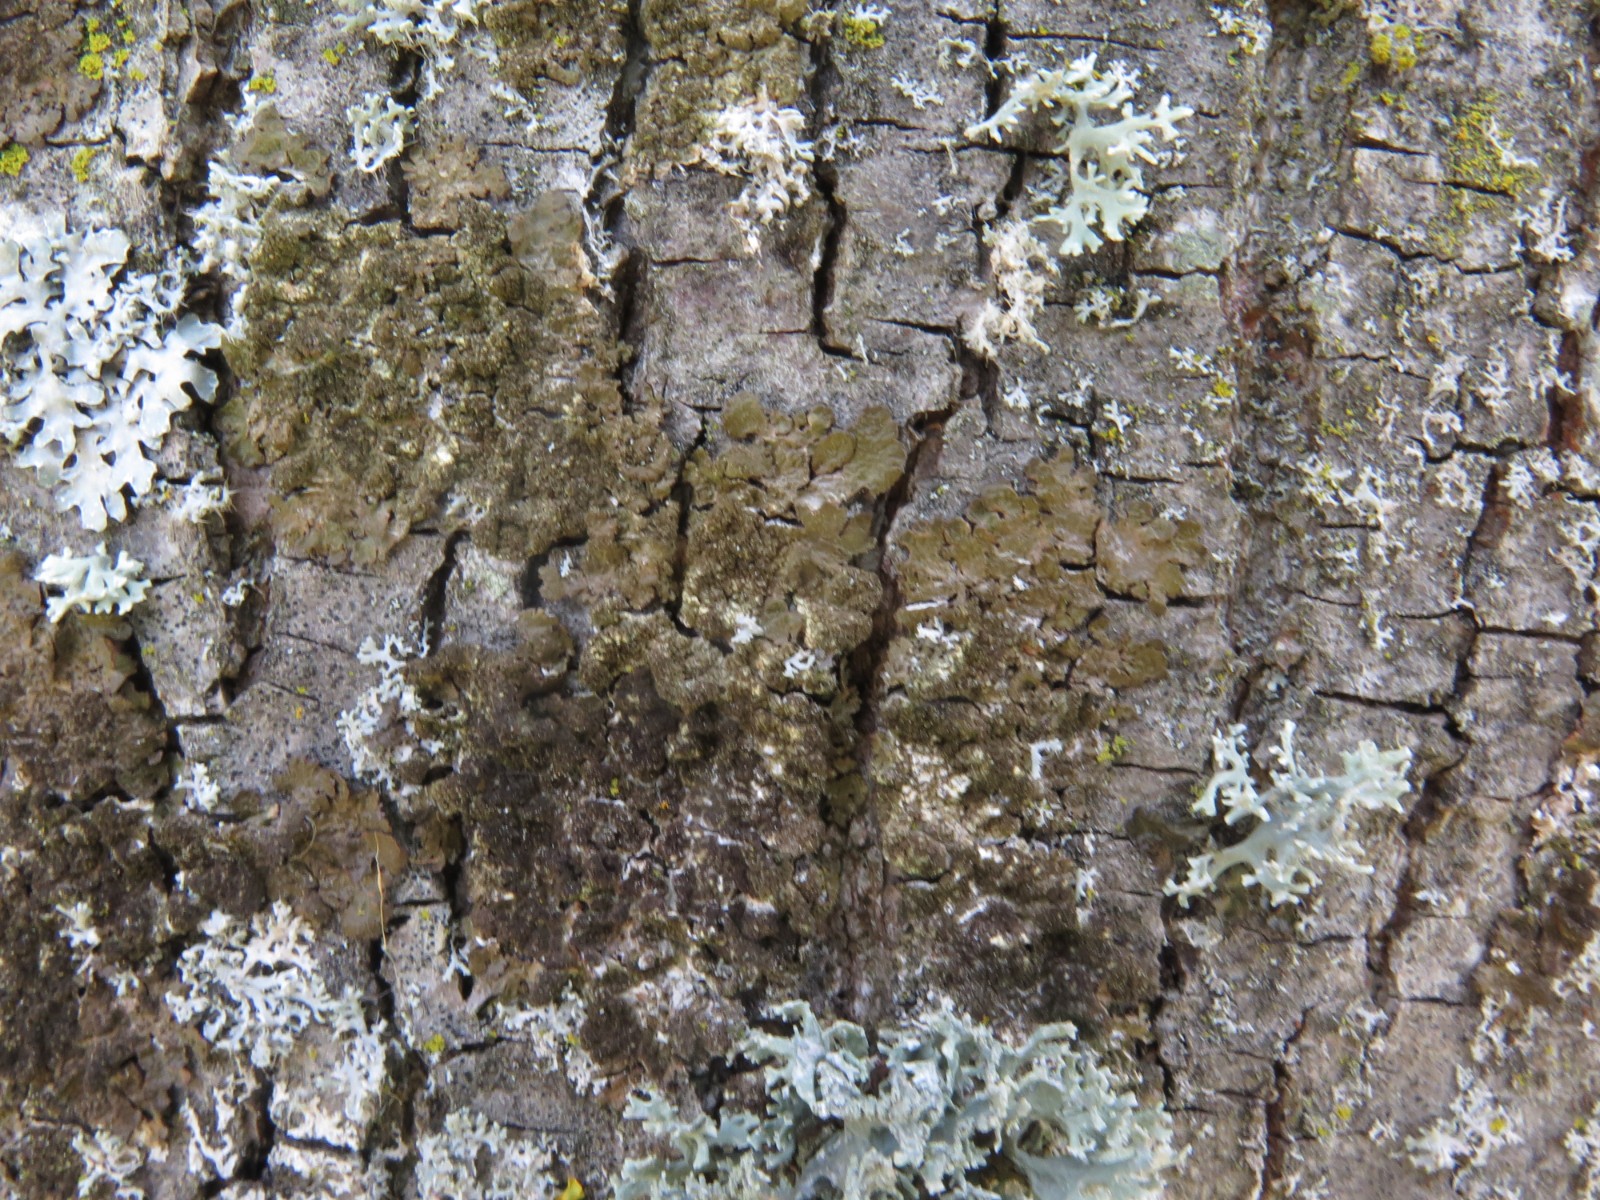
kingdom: Fungi
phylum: Ascomycota
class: Lecanoromycetes
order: Lecanorales
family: Parmeliaceae
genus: Melanelixia
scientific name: Melanelixia subaurifera
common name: guldpudret skållav
